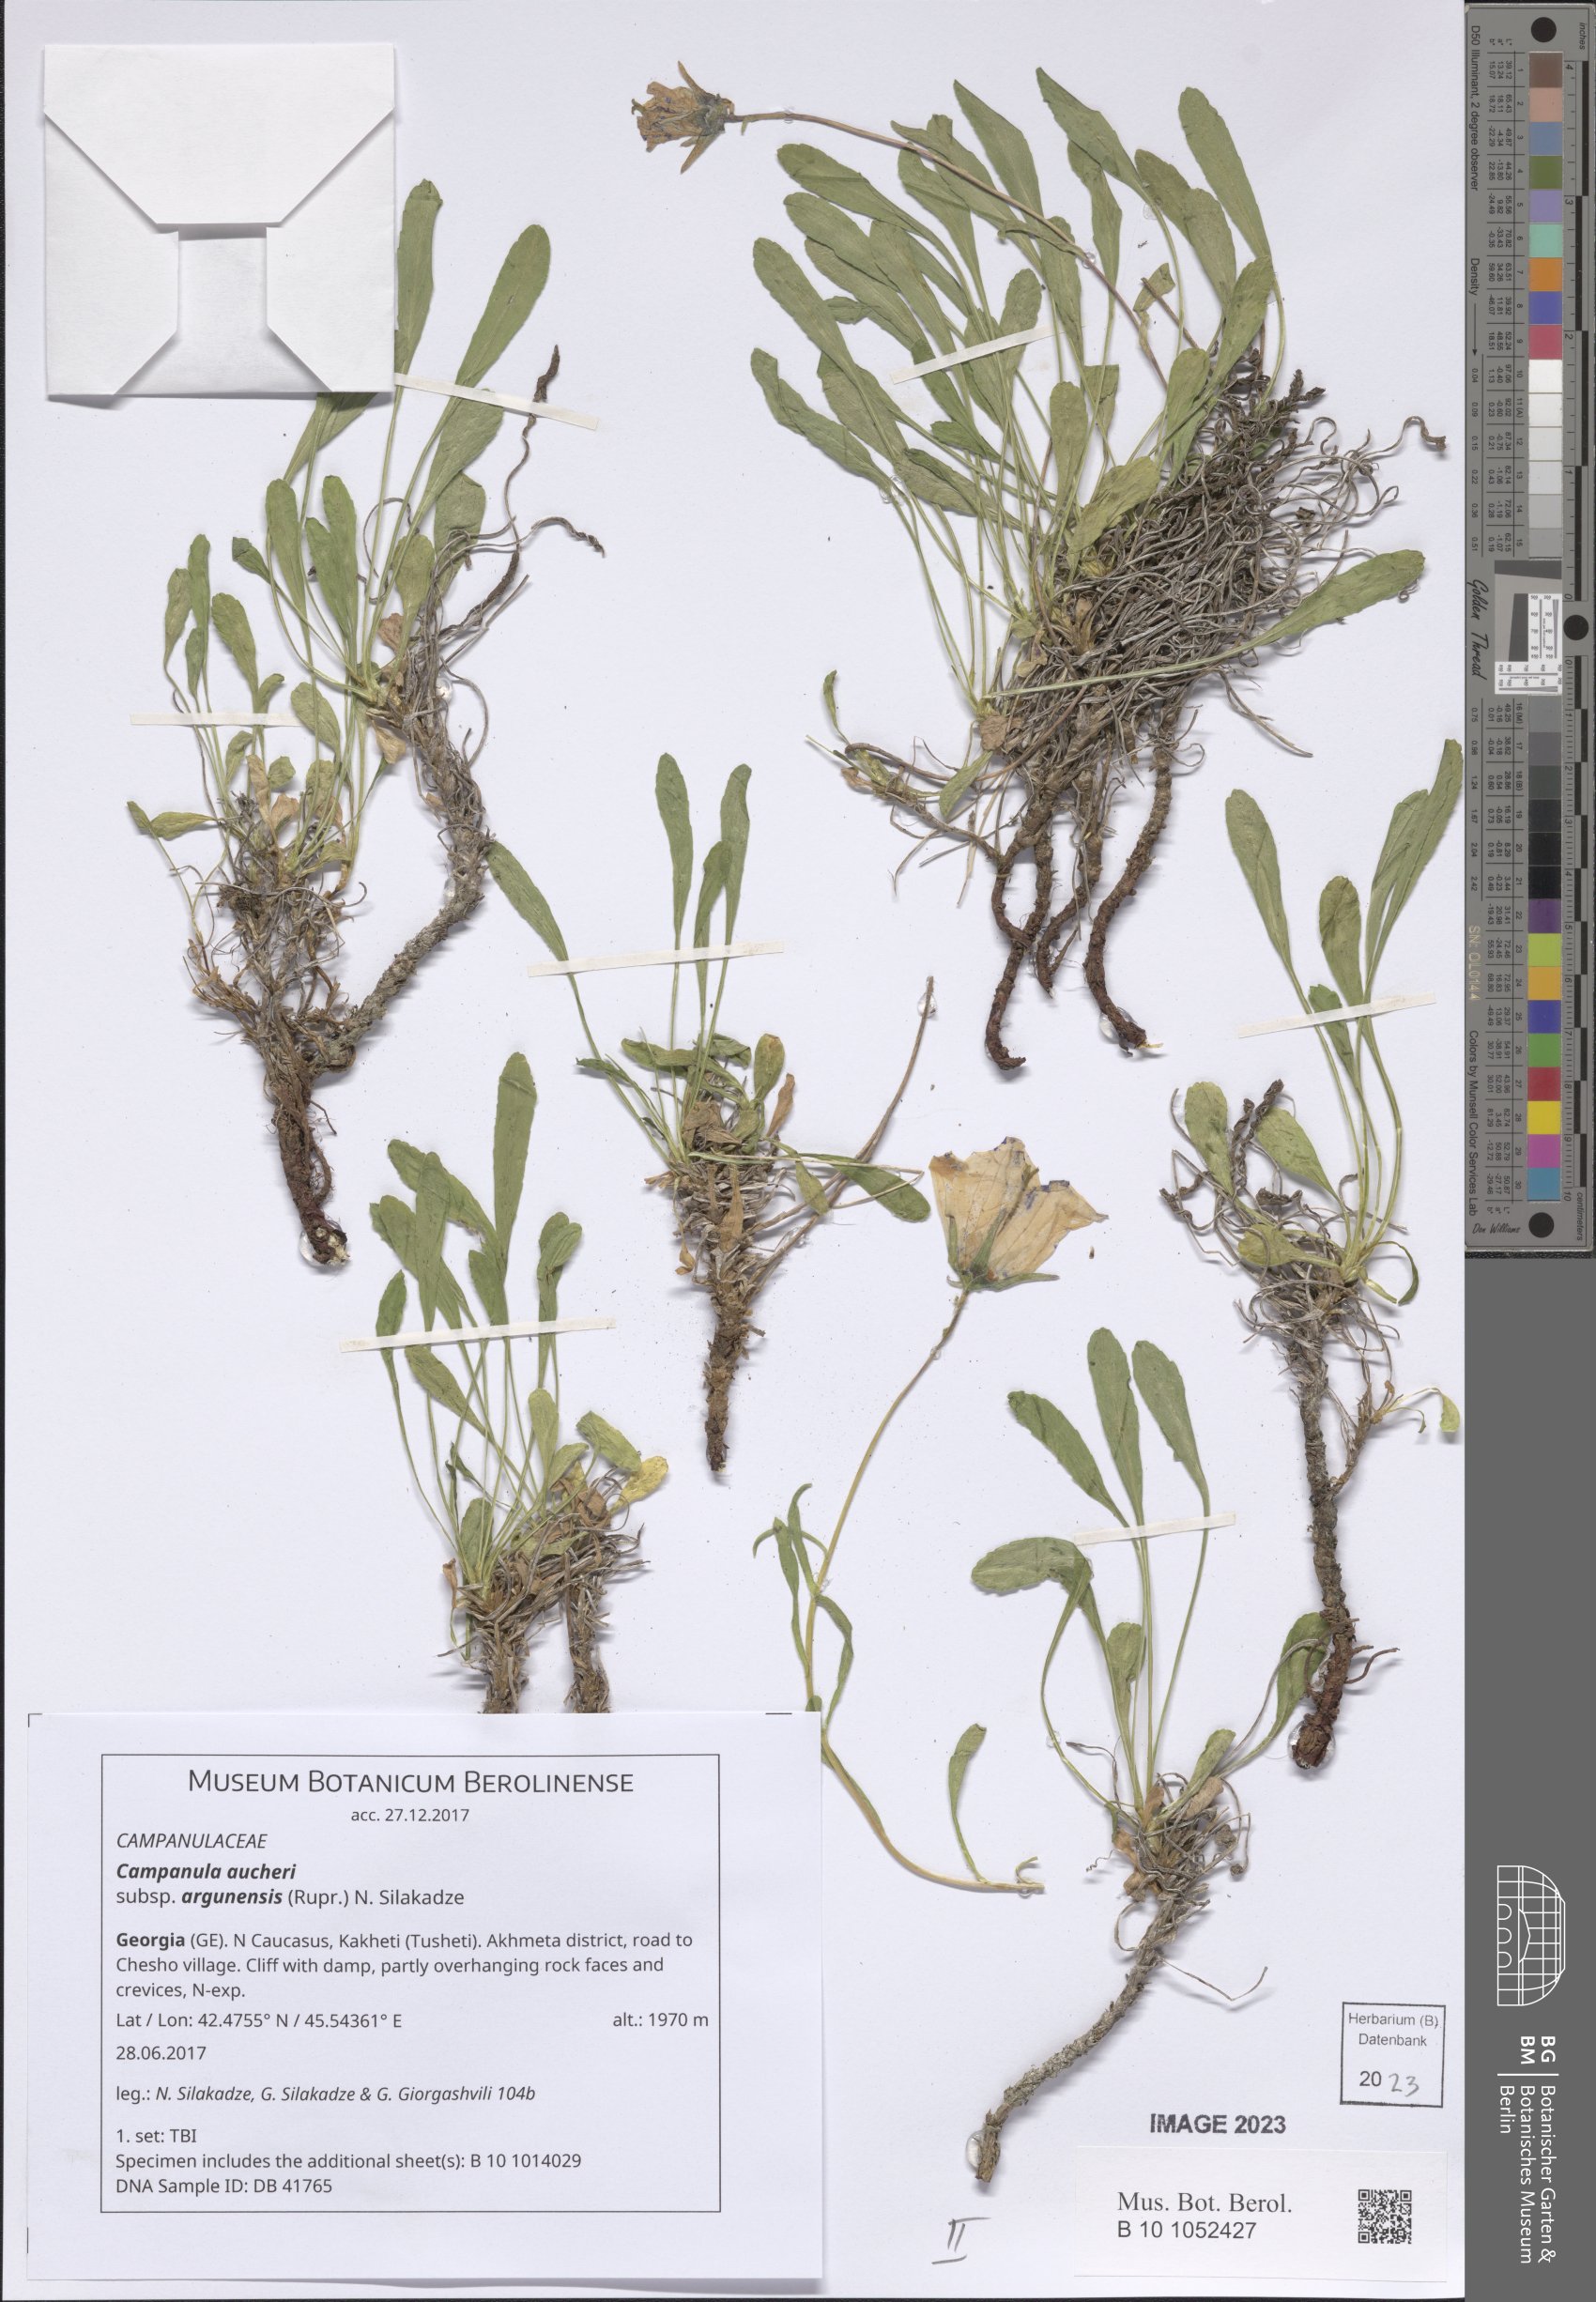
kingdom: Plantae
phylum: Tracheophyta
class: Magnoliopsida
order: Asterales
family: Campanulaceae
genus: Campanula
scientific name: Campanula saxifraga
